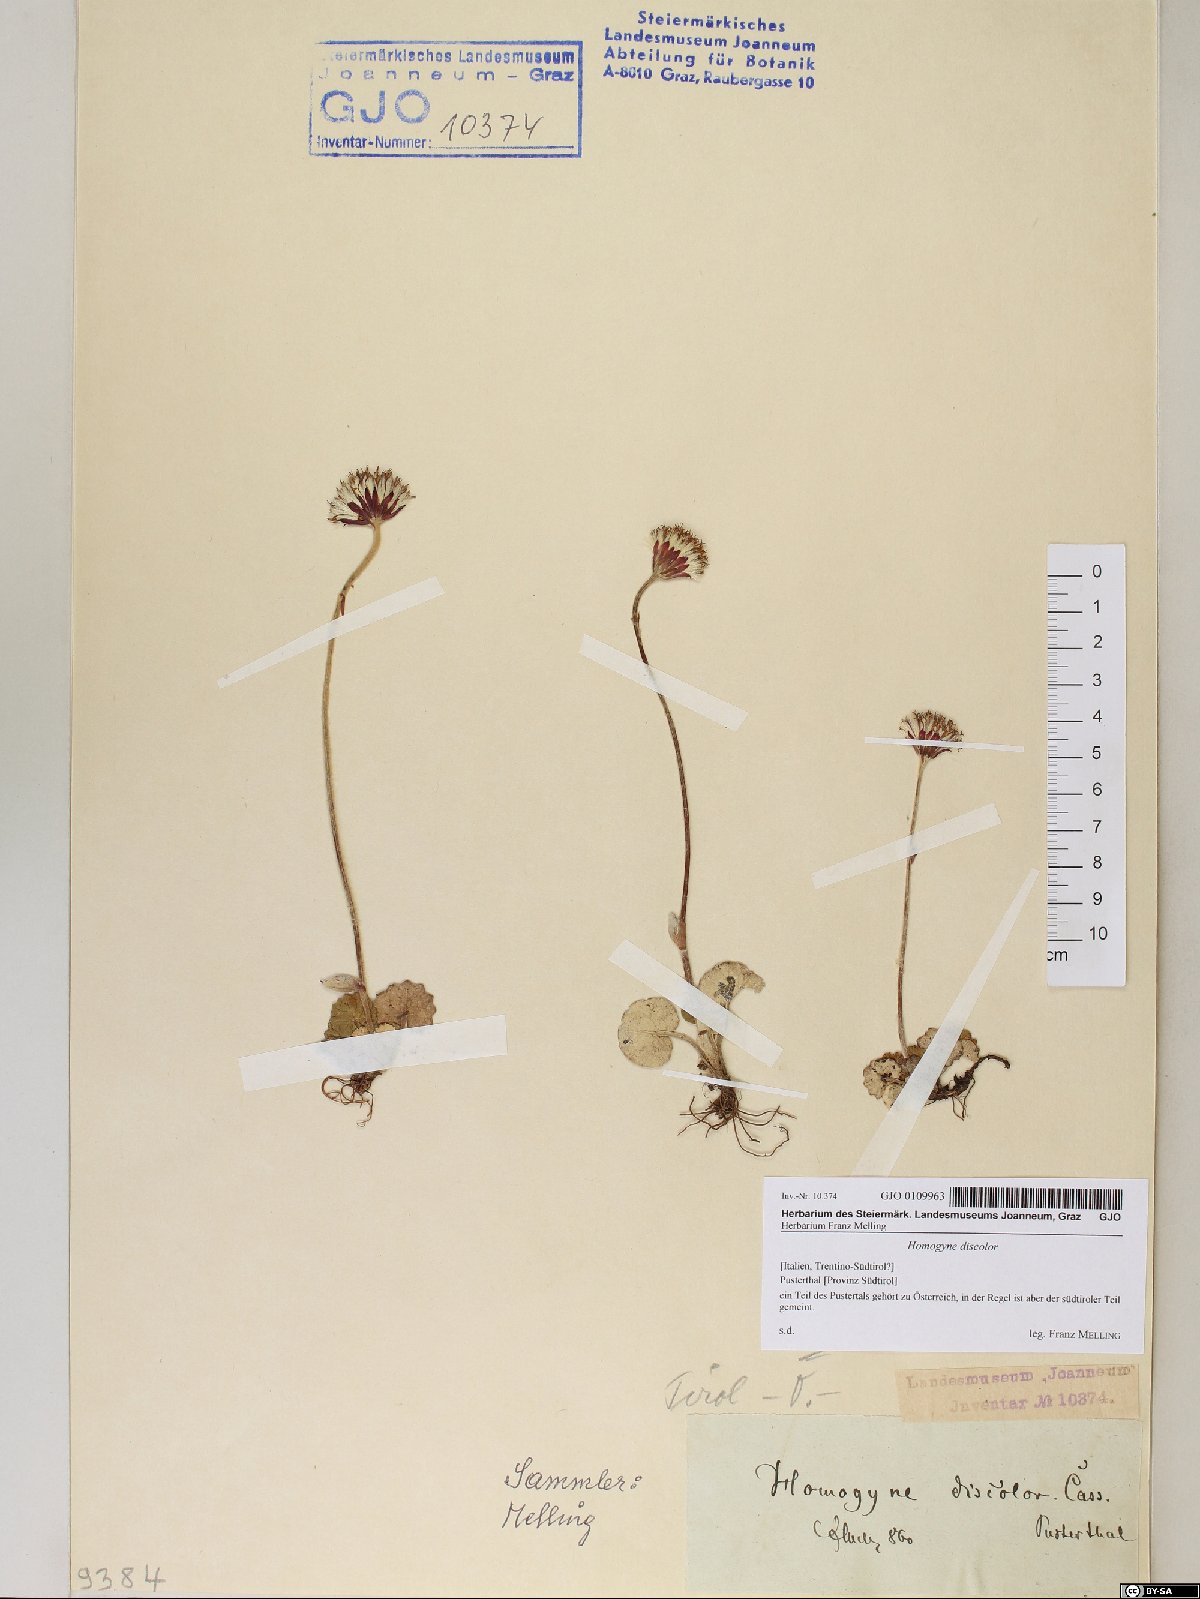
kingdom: Plantae
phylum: Tracheophyta
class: Magnoliopsida
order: Asterales
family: Asteraceae
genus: Homogyne
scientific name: Homogyne discolor
